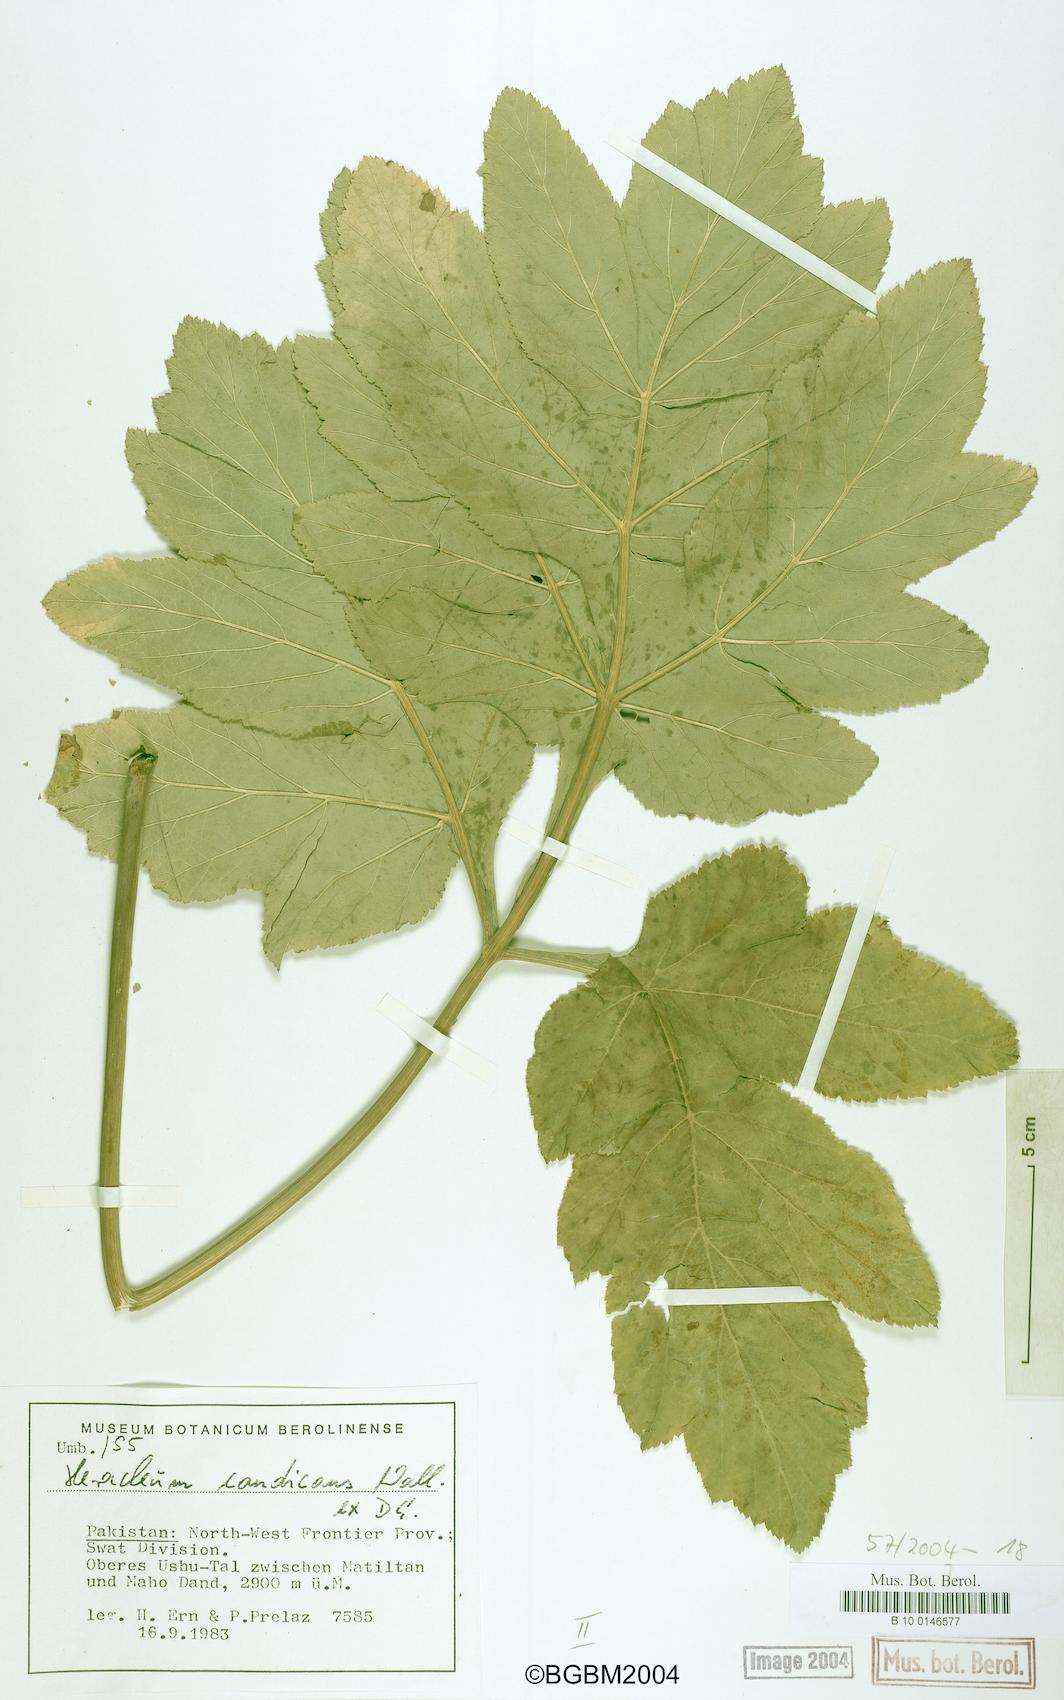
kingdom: Plantae
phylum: Tracheophyta
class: Magnoliopsida
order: Apiales
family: Apiaceae
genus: Tetrataenium
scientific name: Tetrataenium candicans
